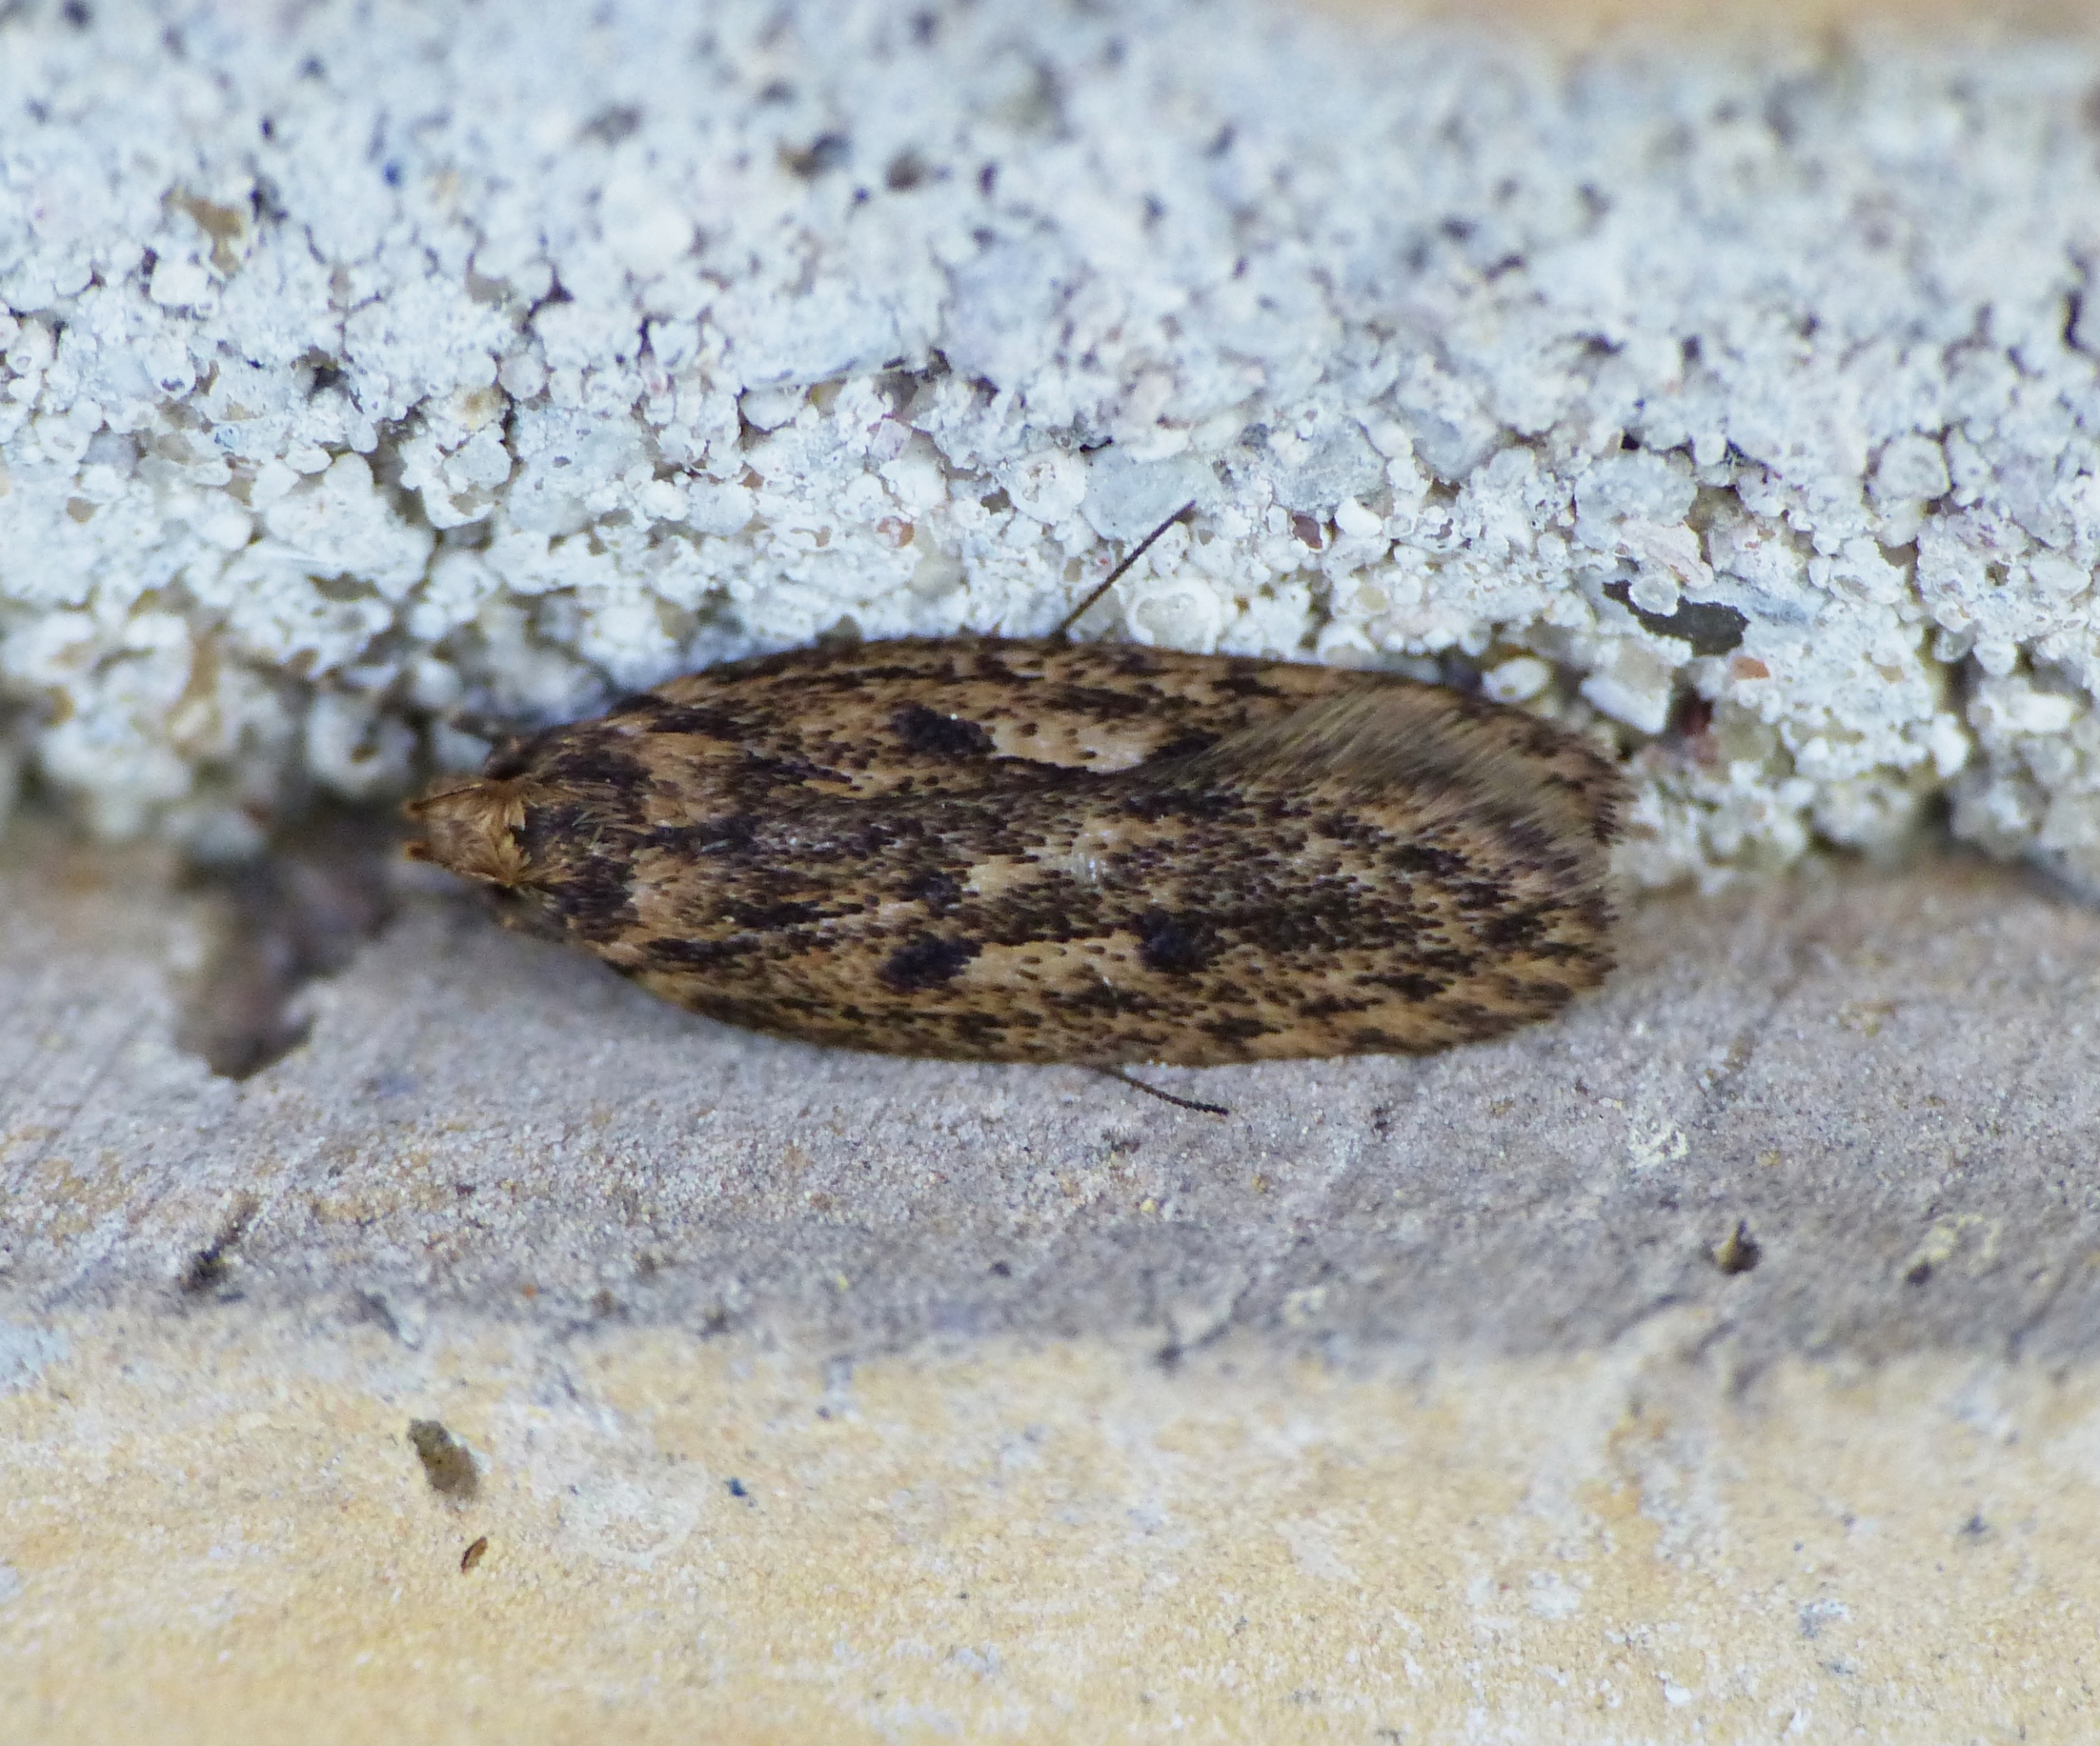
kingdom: Animalia
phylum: Arthropoda
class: Insecta
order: Lepidoptera
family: Oecophoridae
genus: Hofmannophila
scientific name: Hofmannophila pseudospretella
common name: Frømøl
